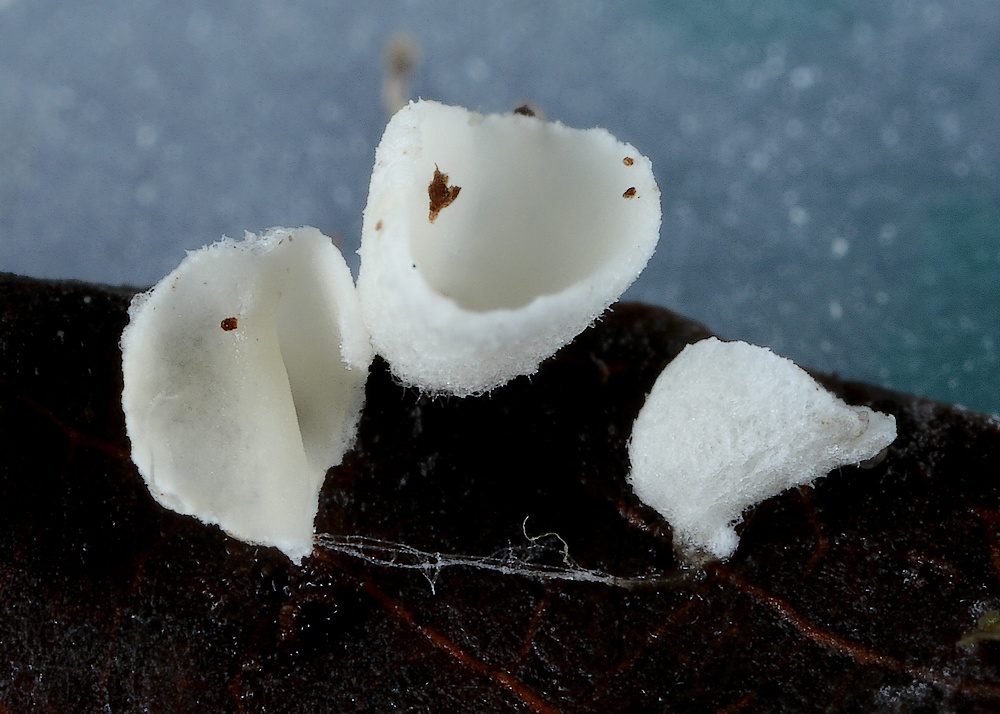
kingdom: Fungi
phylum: Basidiomycota
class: Agaricomycetes
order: Agaricales
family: Tricholomataceae
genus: Rimbachia
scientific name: Rimbachia arachnoidea
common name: Almindelig mosskål
